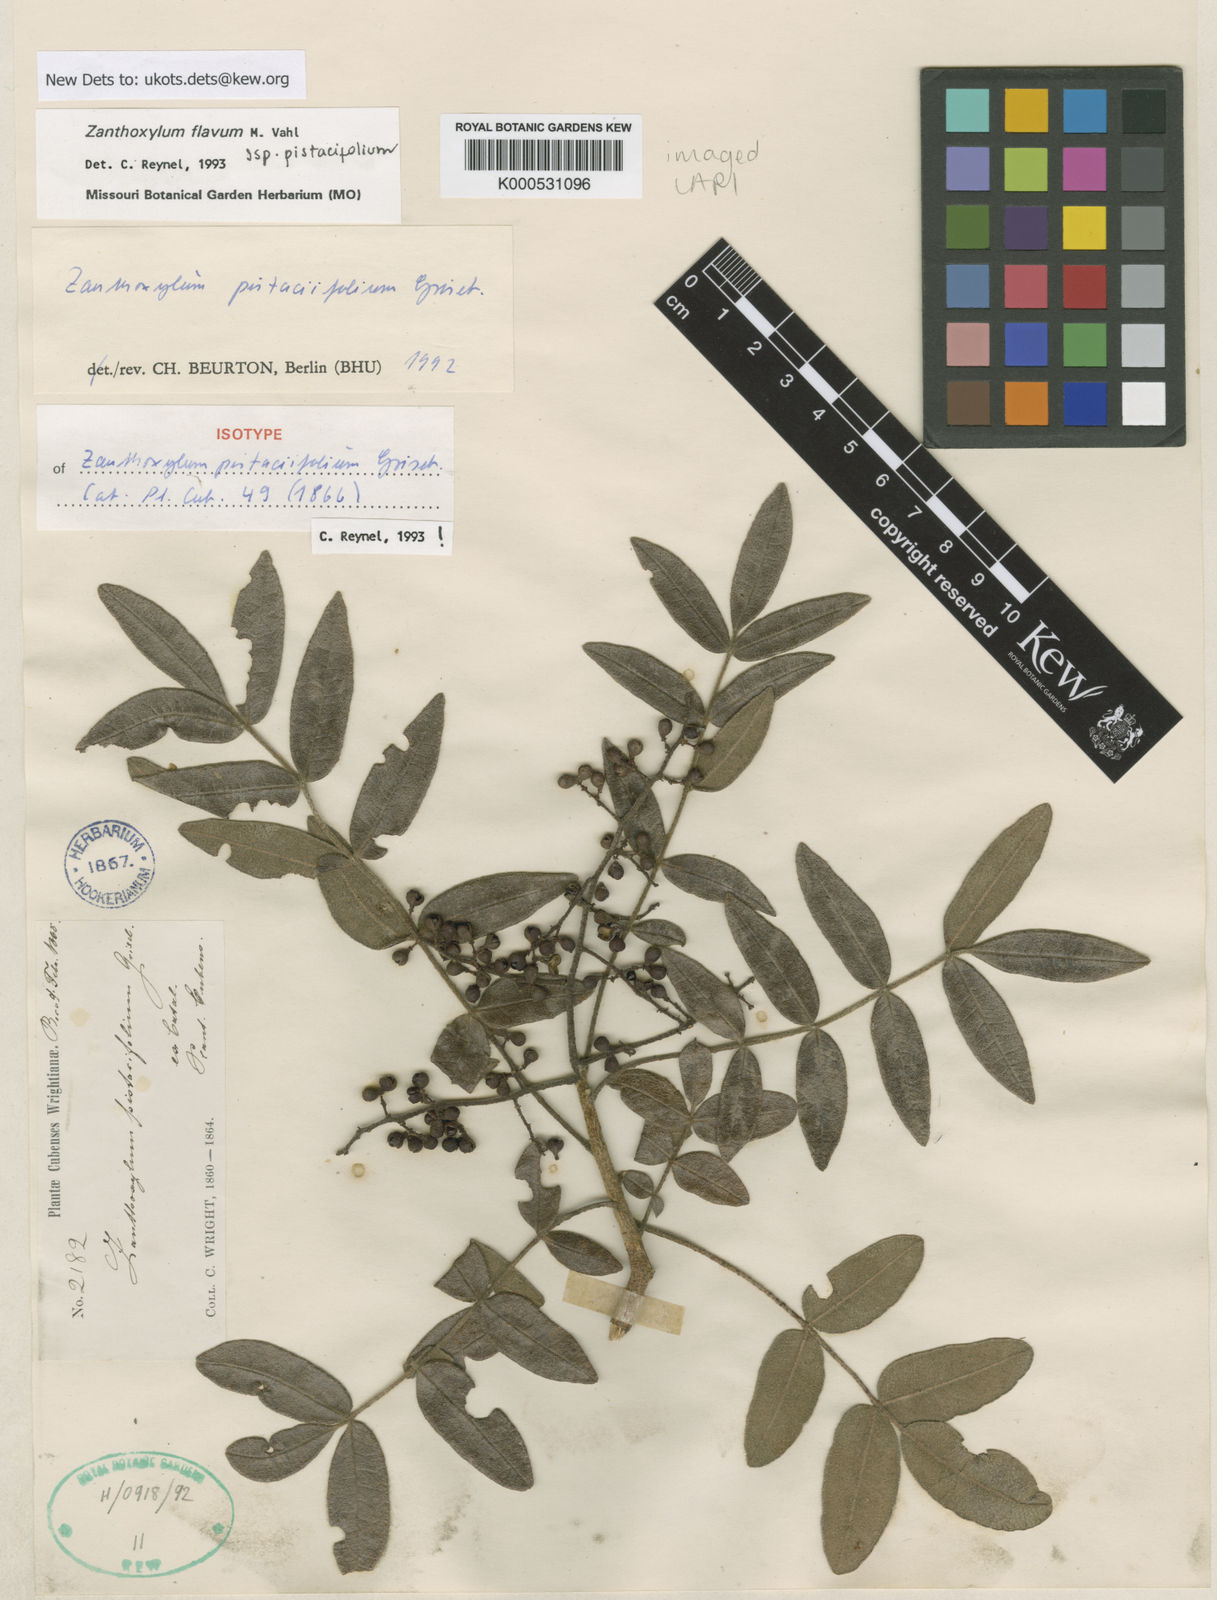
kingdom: Plantae
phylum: Tracheophyta
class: Magnoliopsida
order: Sapindales
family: Rutaceae
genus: Zanthoxylum
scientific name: Zanthoxylum flavum
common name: West indian satinwood
